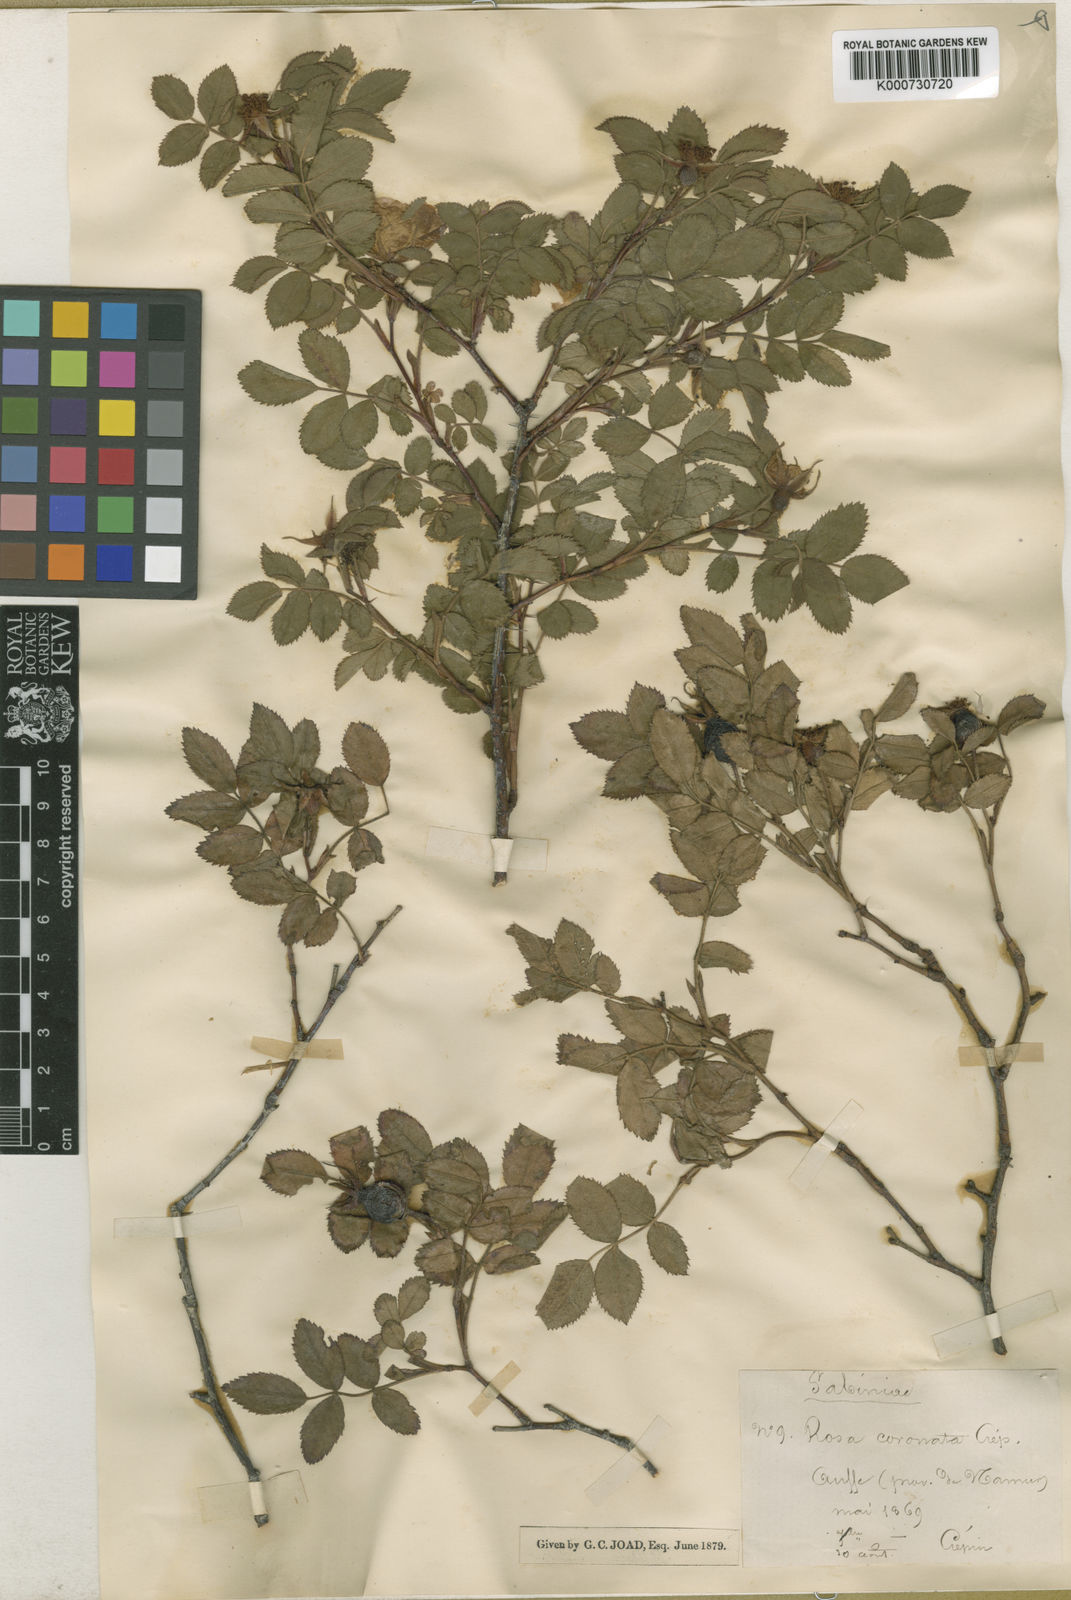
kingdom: Plantae
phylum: Tracheophyta
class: Magnoliopsida
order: Rosales
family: Rosaceae
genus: Rosa
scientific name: Rosa involuta
